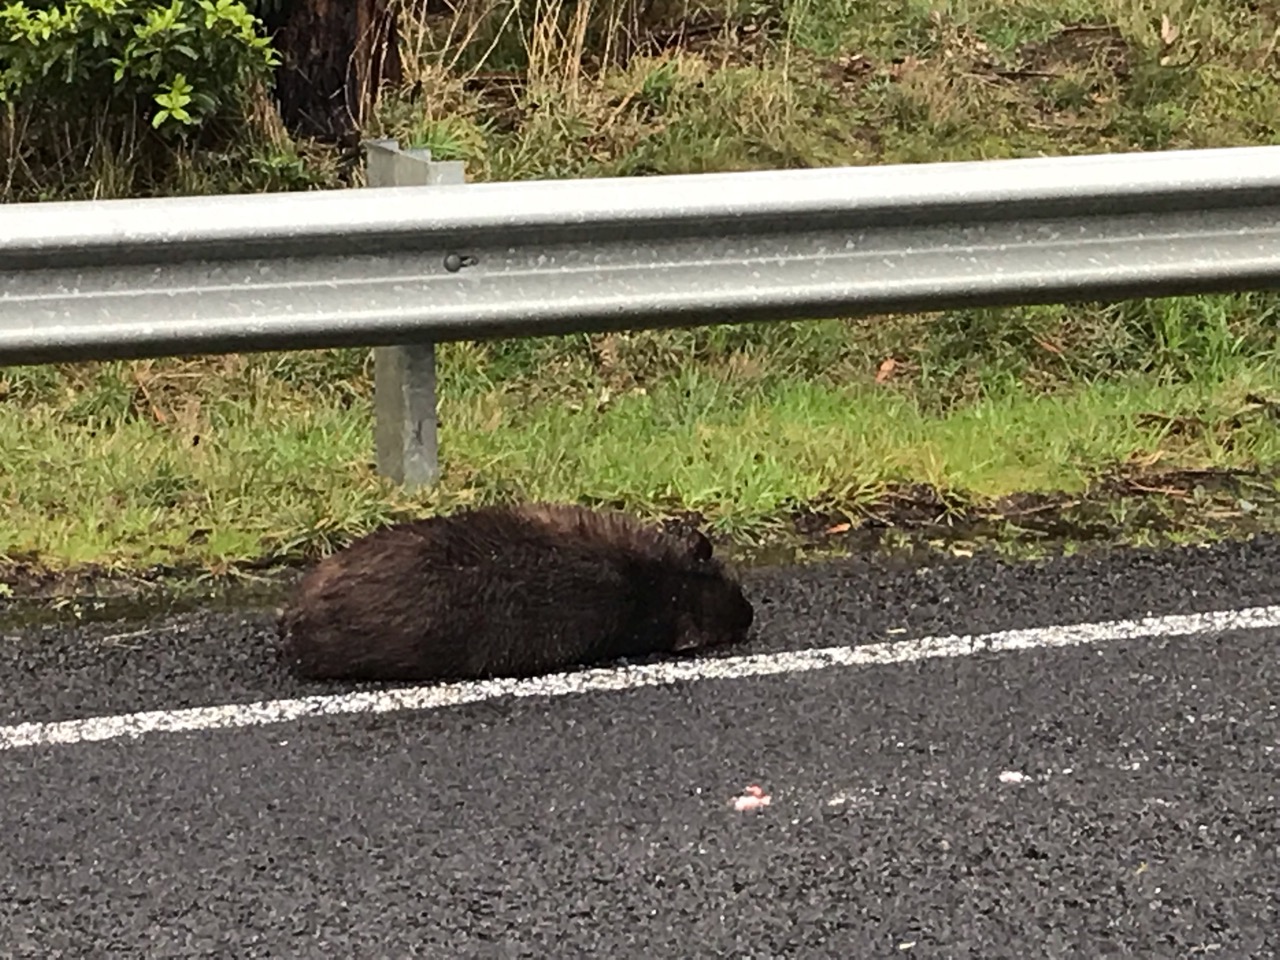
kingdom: Animalia
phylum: Chordata
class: Mammalia
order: Diprotodontia
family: Vombatidae
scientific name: Vombatidae
